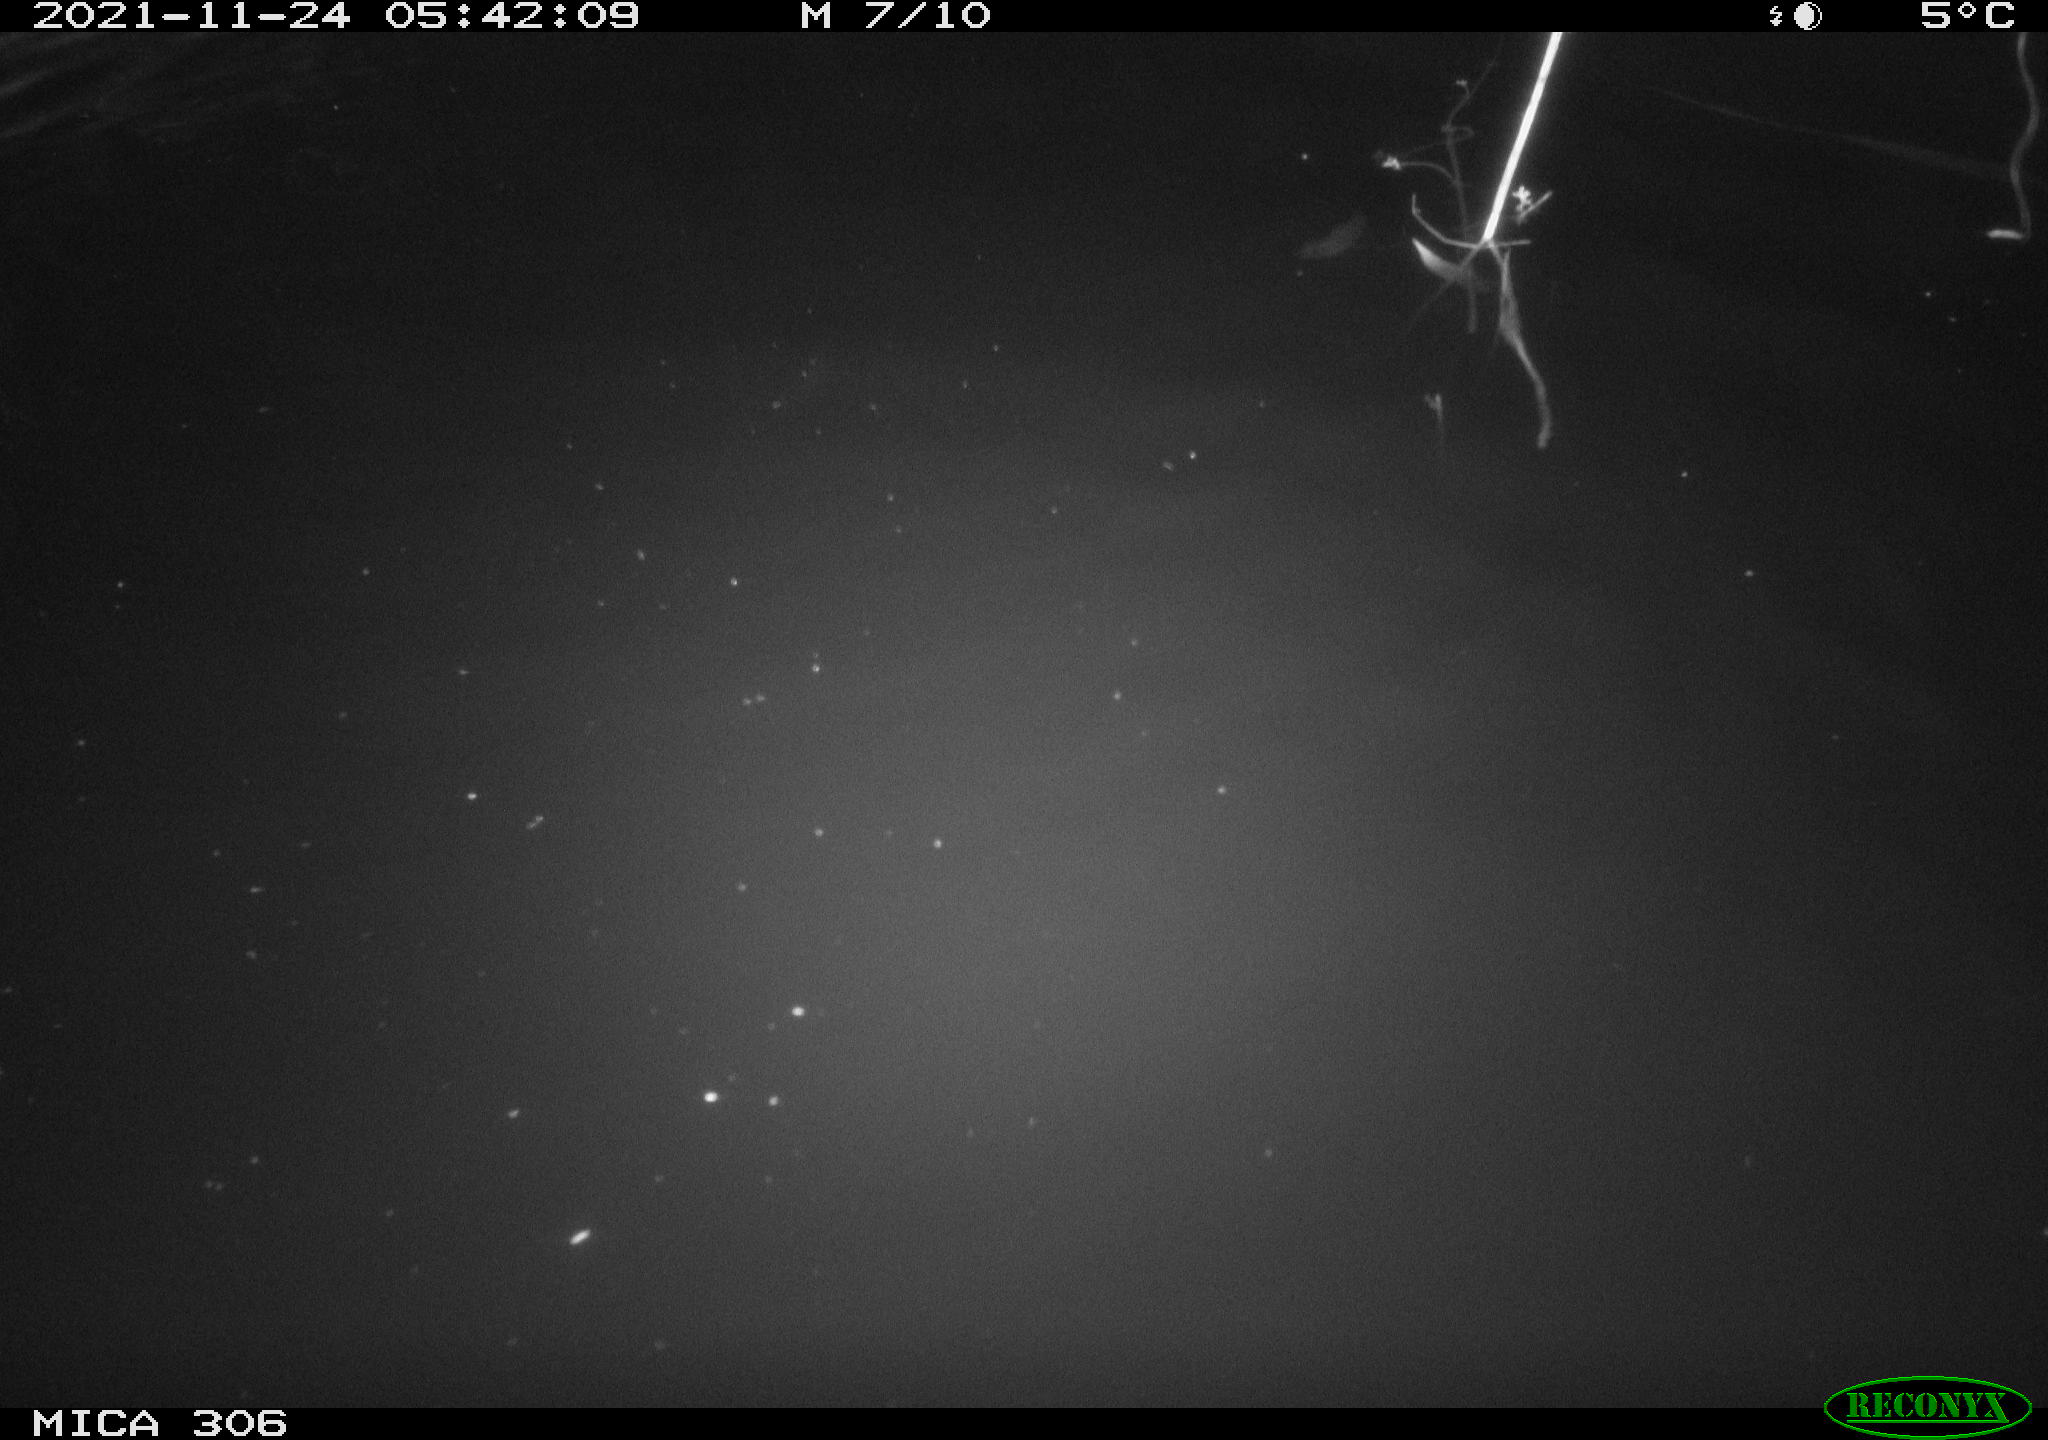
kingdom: Animalia
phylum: Chordata
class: Mammalia
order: Rodentia
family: Cricetidae
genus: Ondatra
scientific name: Ondatra zibethicus
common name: Muskrat
